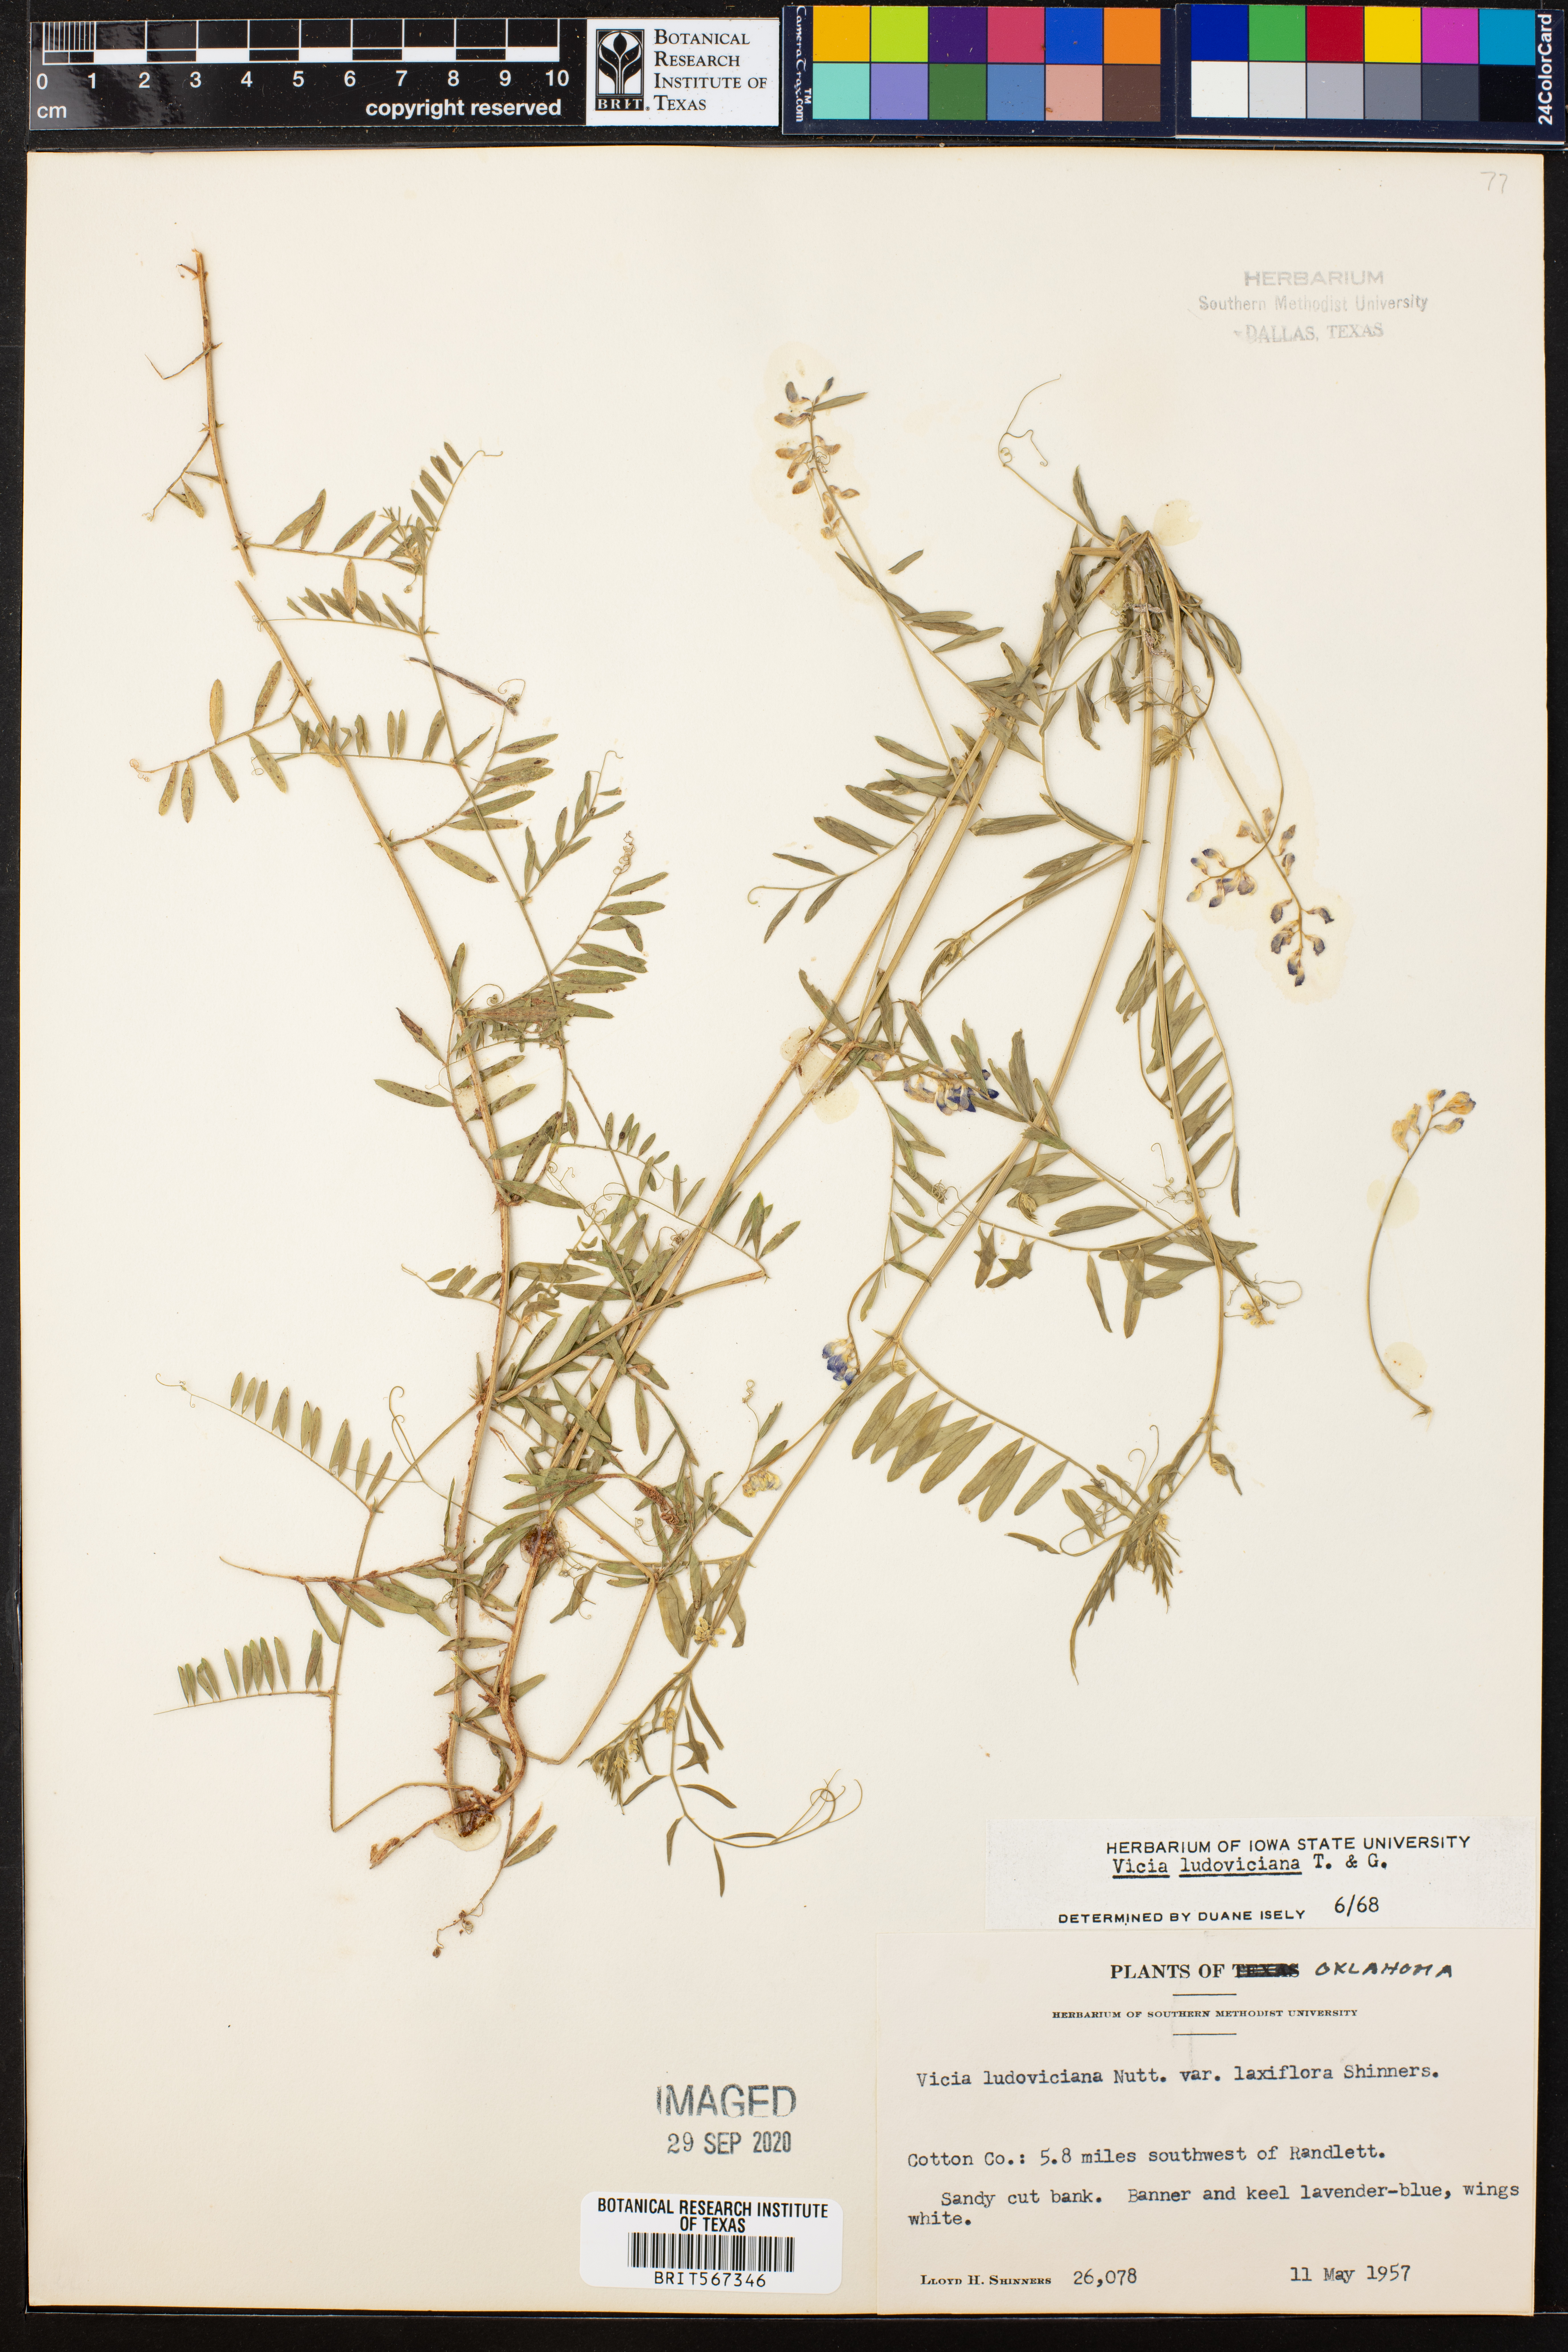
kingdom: Plantae
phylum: Tracheophyta
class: Magnoliopsida
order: Fabales
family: Fabaceae
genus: Vicia
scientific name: Vicia ludoviciana
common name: Louisiana vetch
